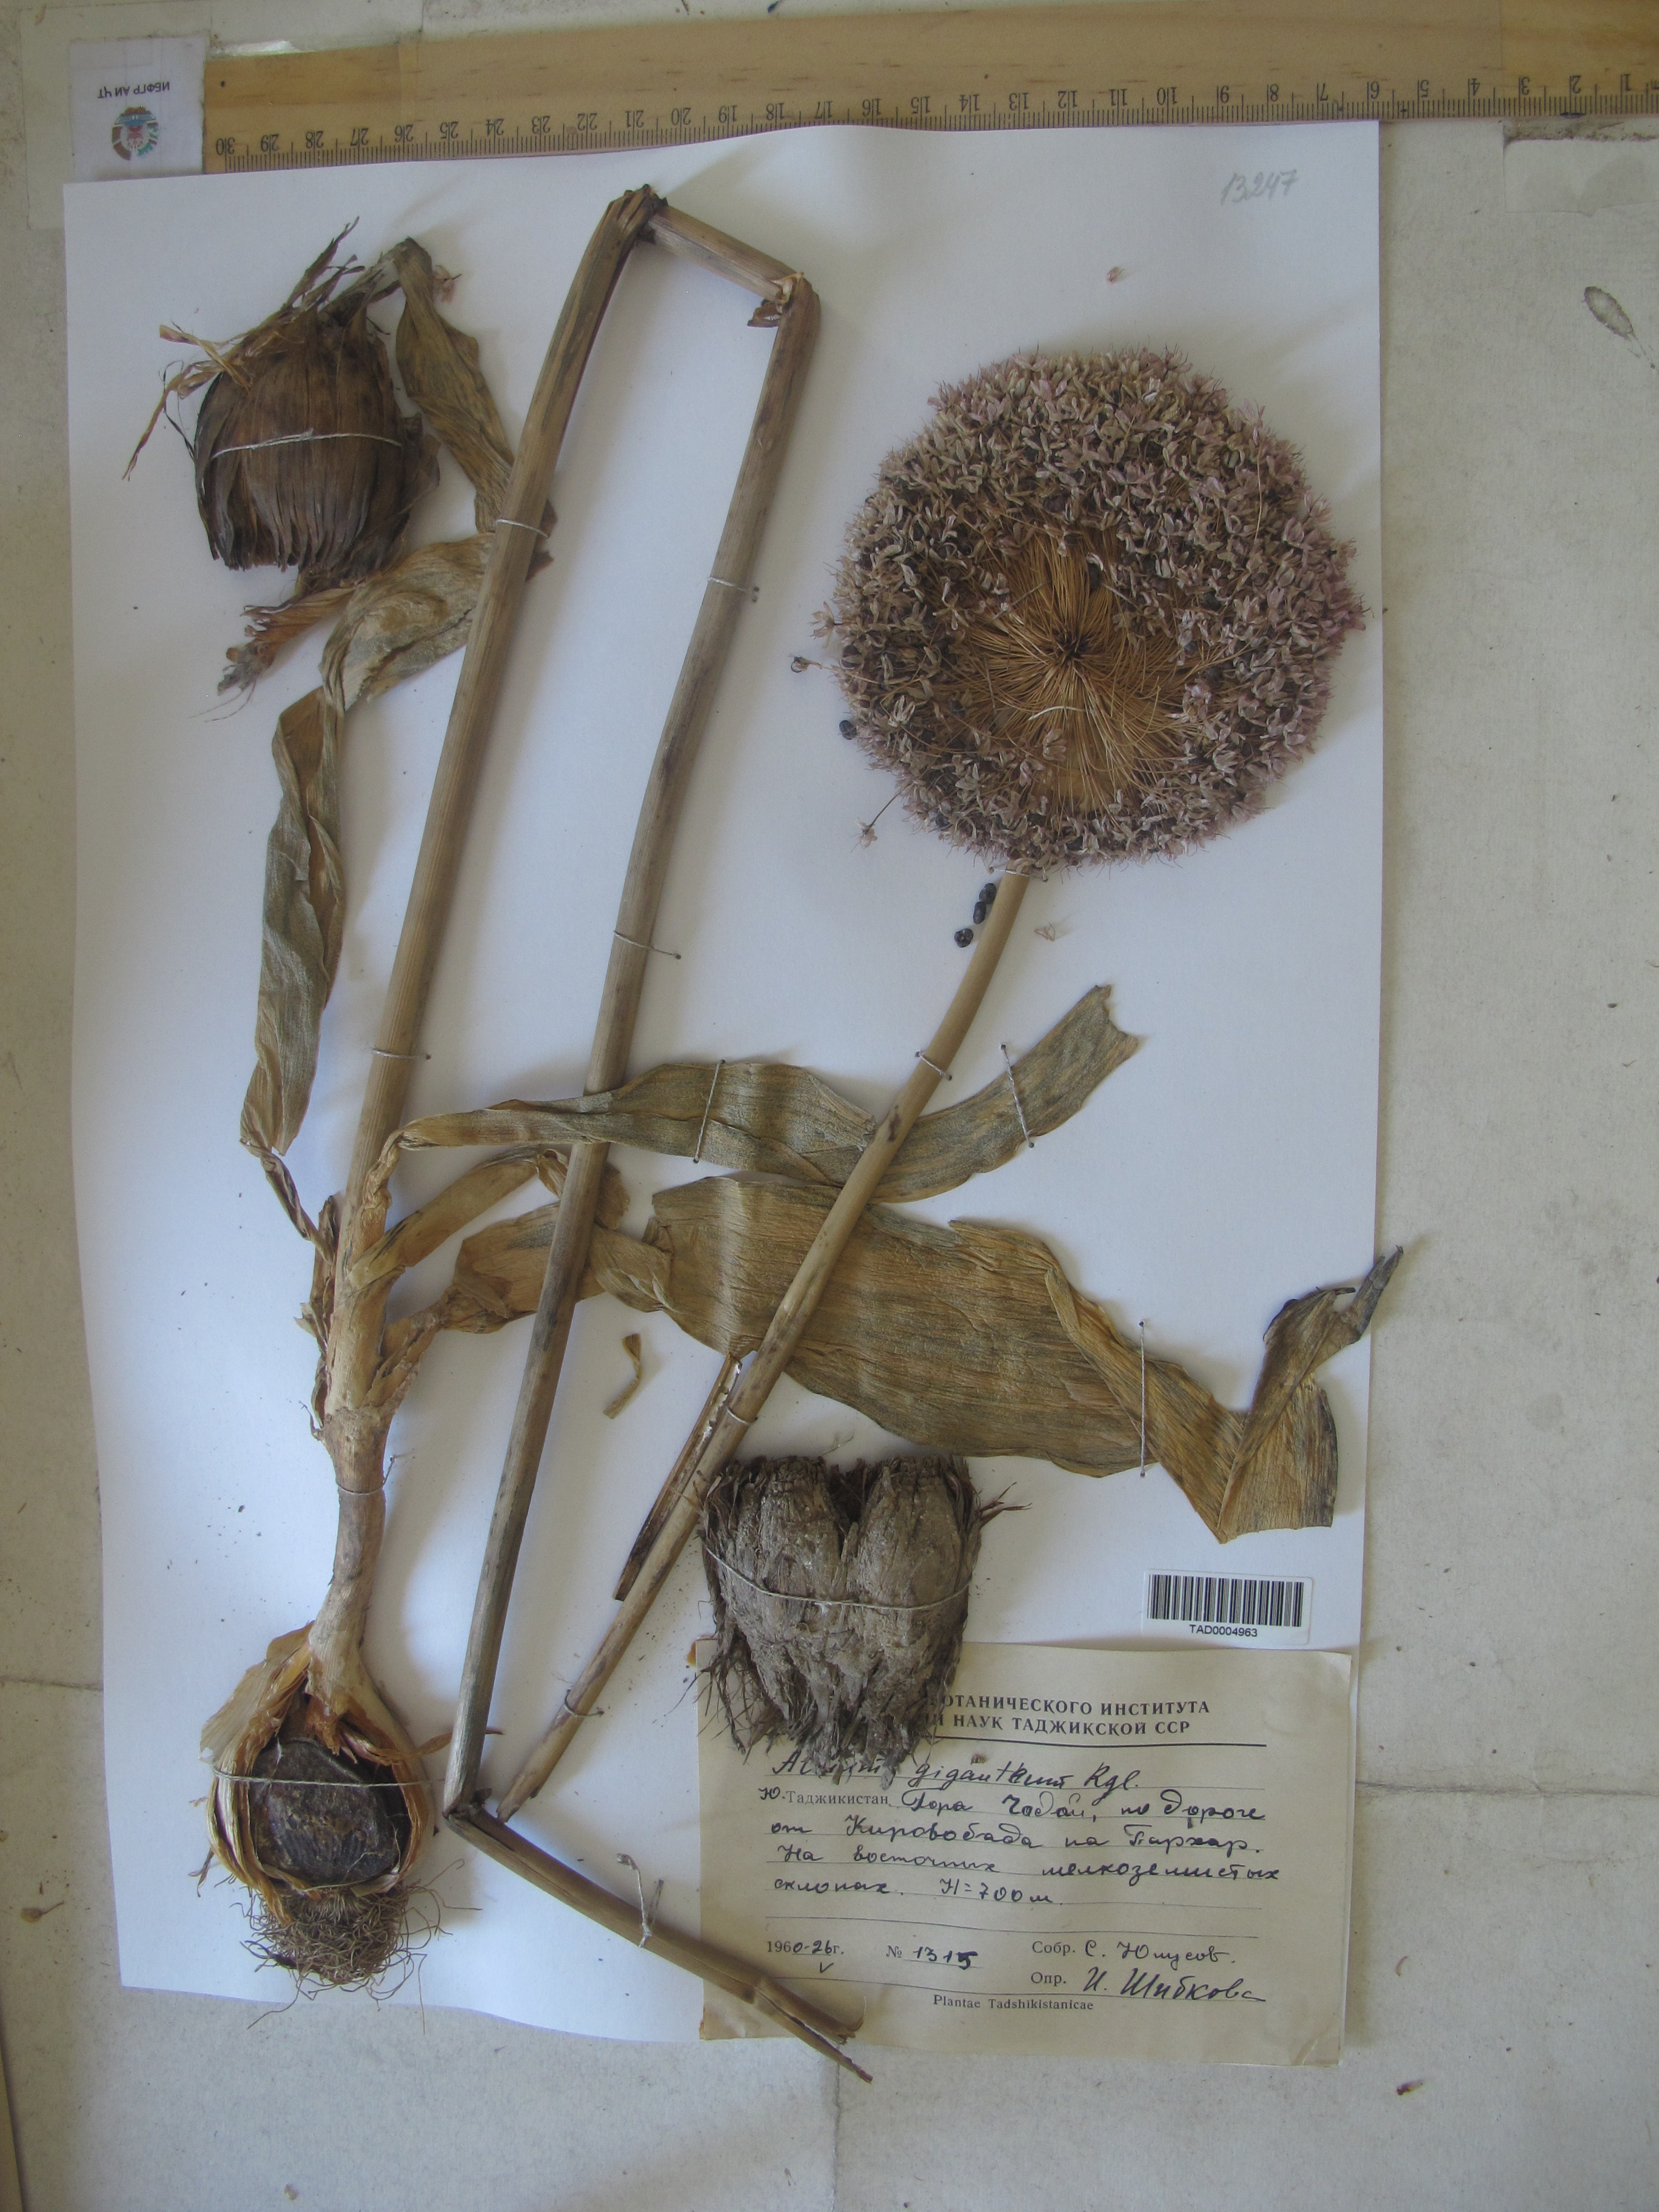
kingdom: Plantae
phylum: Tracheophyta
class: Liliopsida
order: Asparagales
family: Amaryllidaceae
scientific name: Amaryllidaceae
